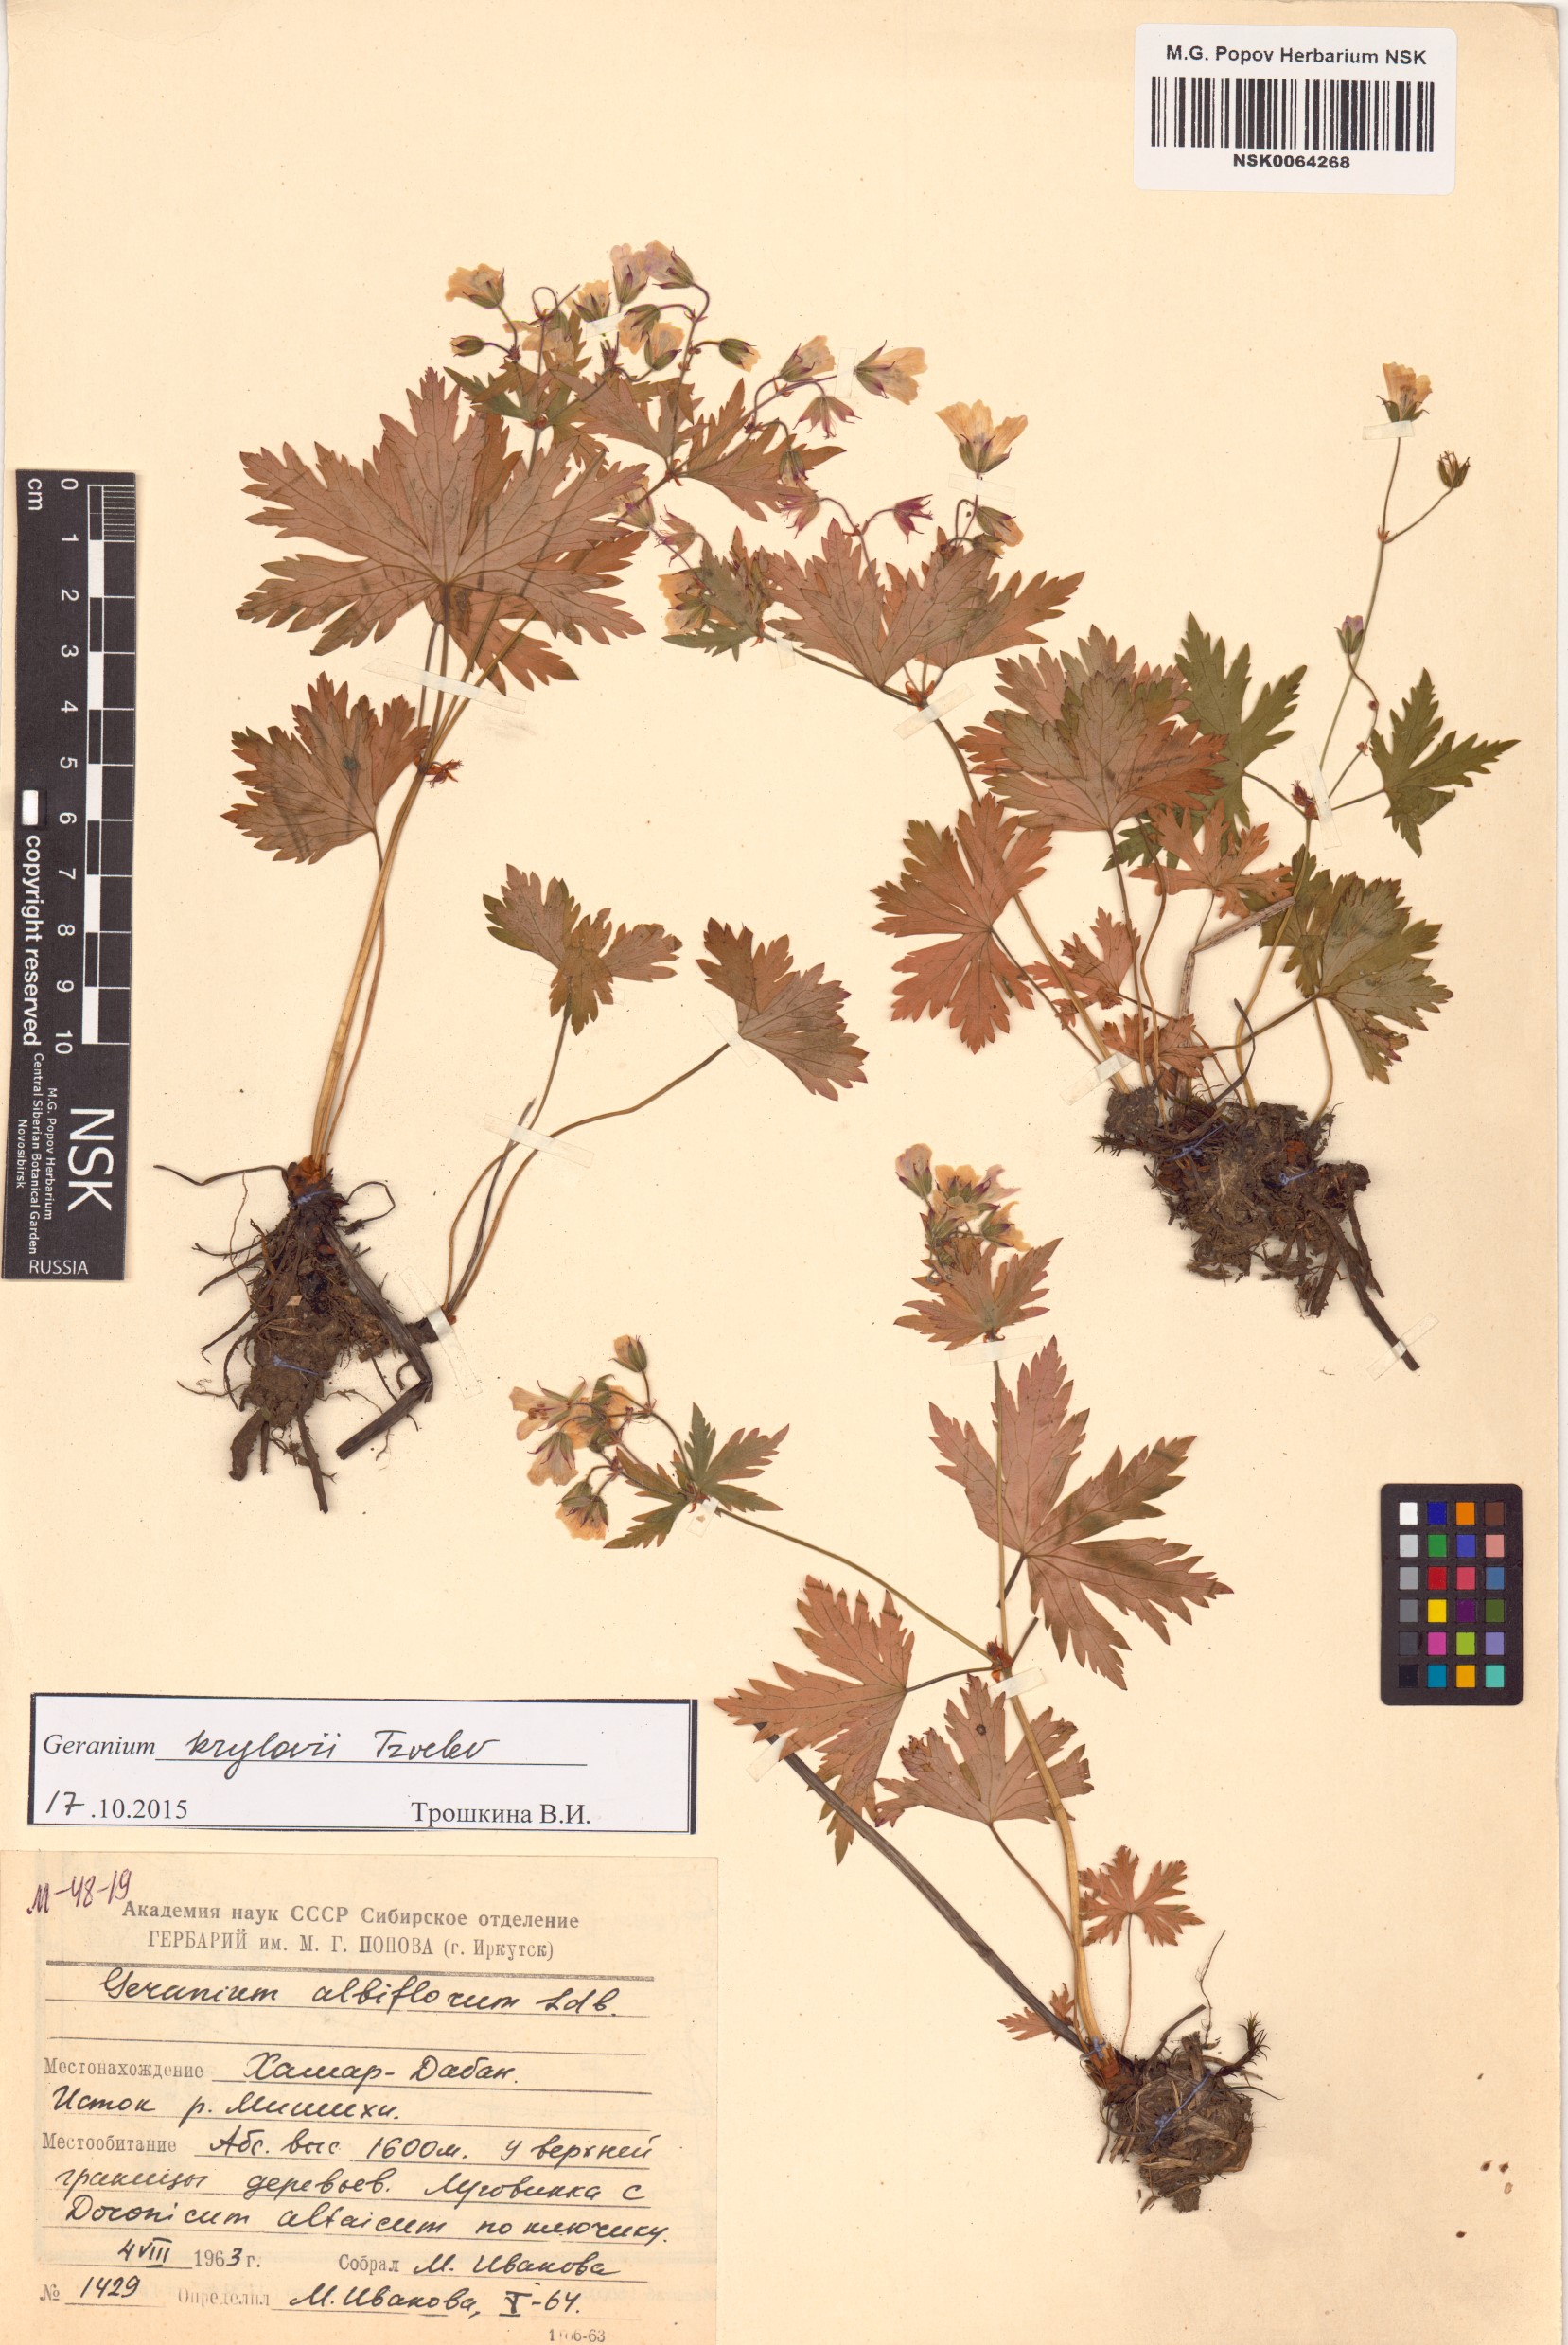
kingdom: Plantae
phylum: Tracheophyta
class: Magnoliopsida
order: Geraniales
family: Geraniaceae
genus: Geranium
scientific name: Geranium sylvaticum
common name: Wood crane's-bill
